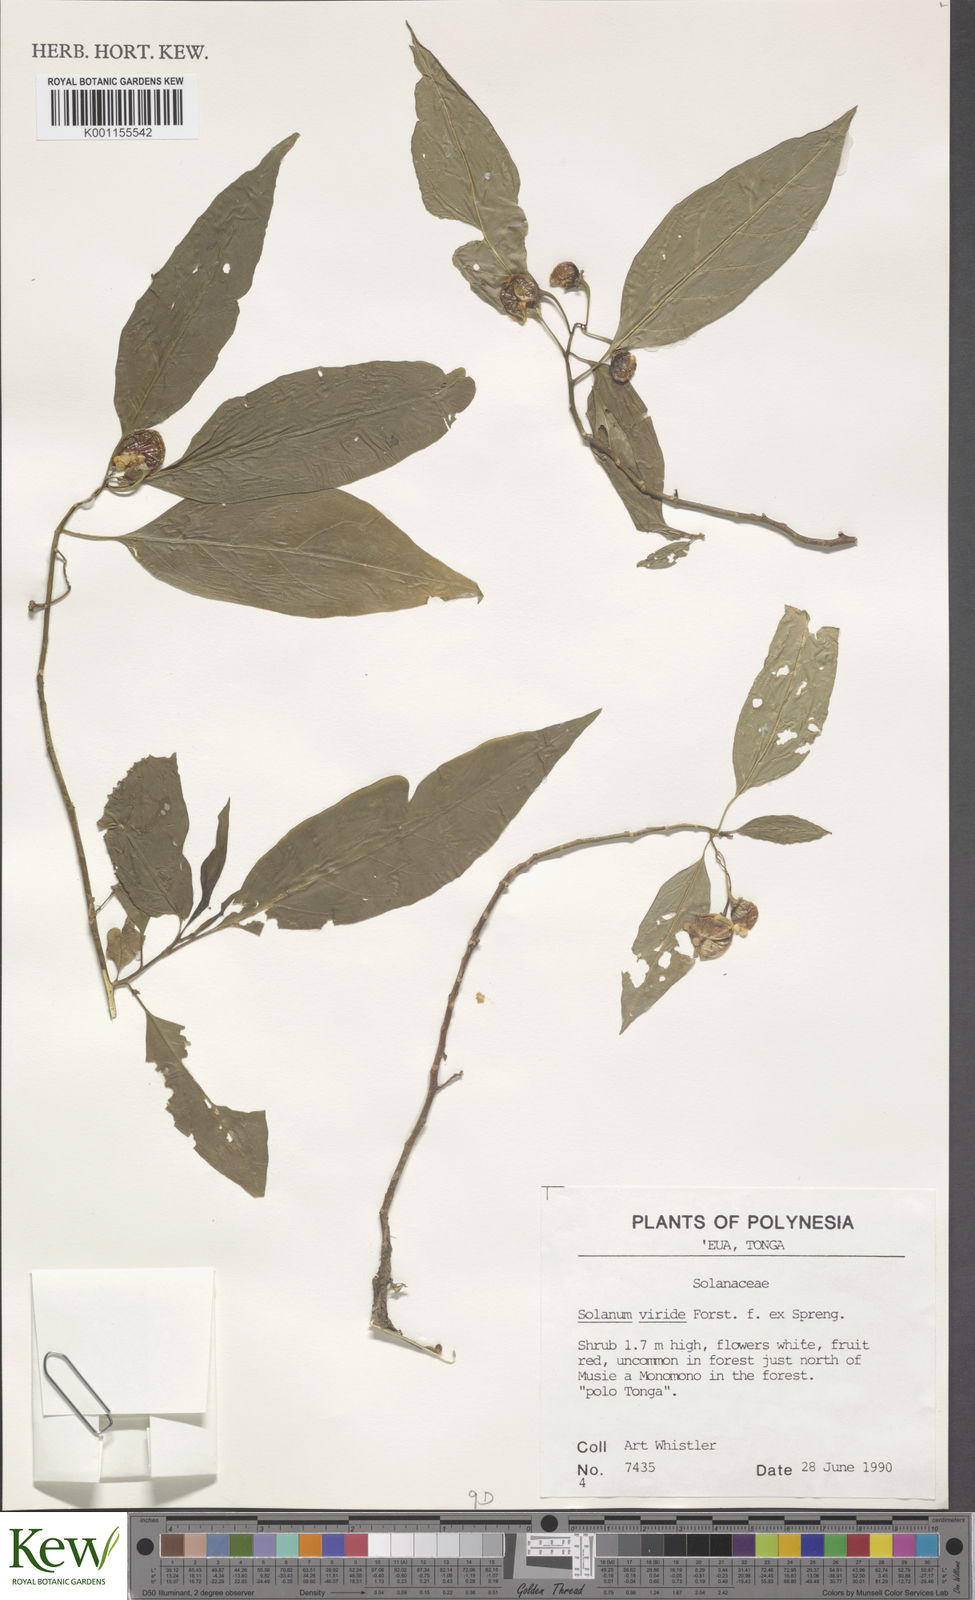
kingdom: Plantae
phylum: Tracheophyta
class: Magnoliopsida
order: Solanales
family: Solanaceae
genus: Solanum
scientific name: Solanum
